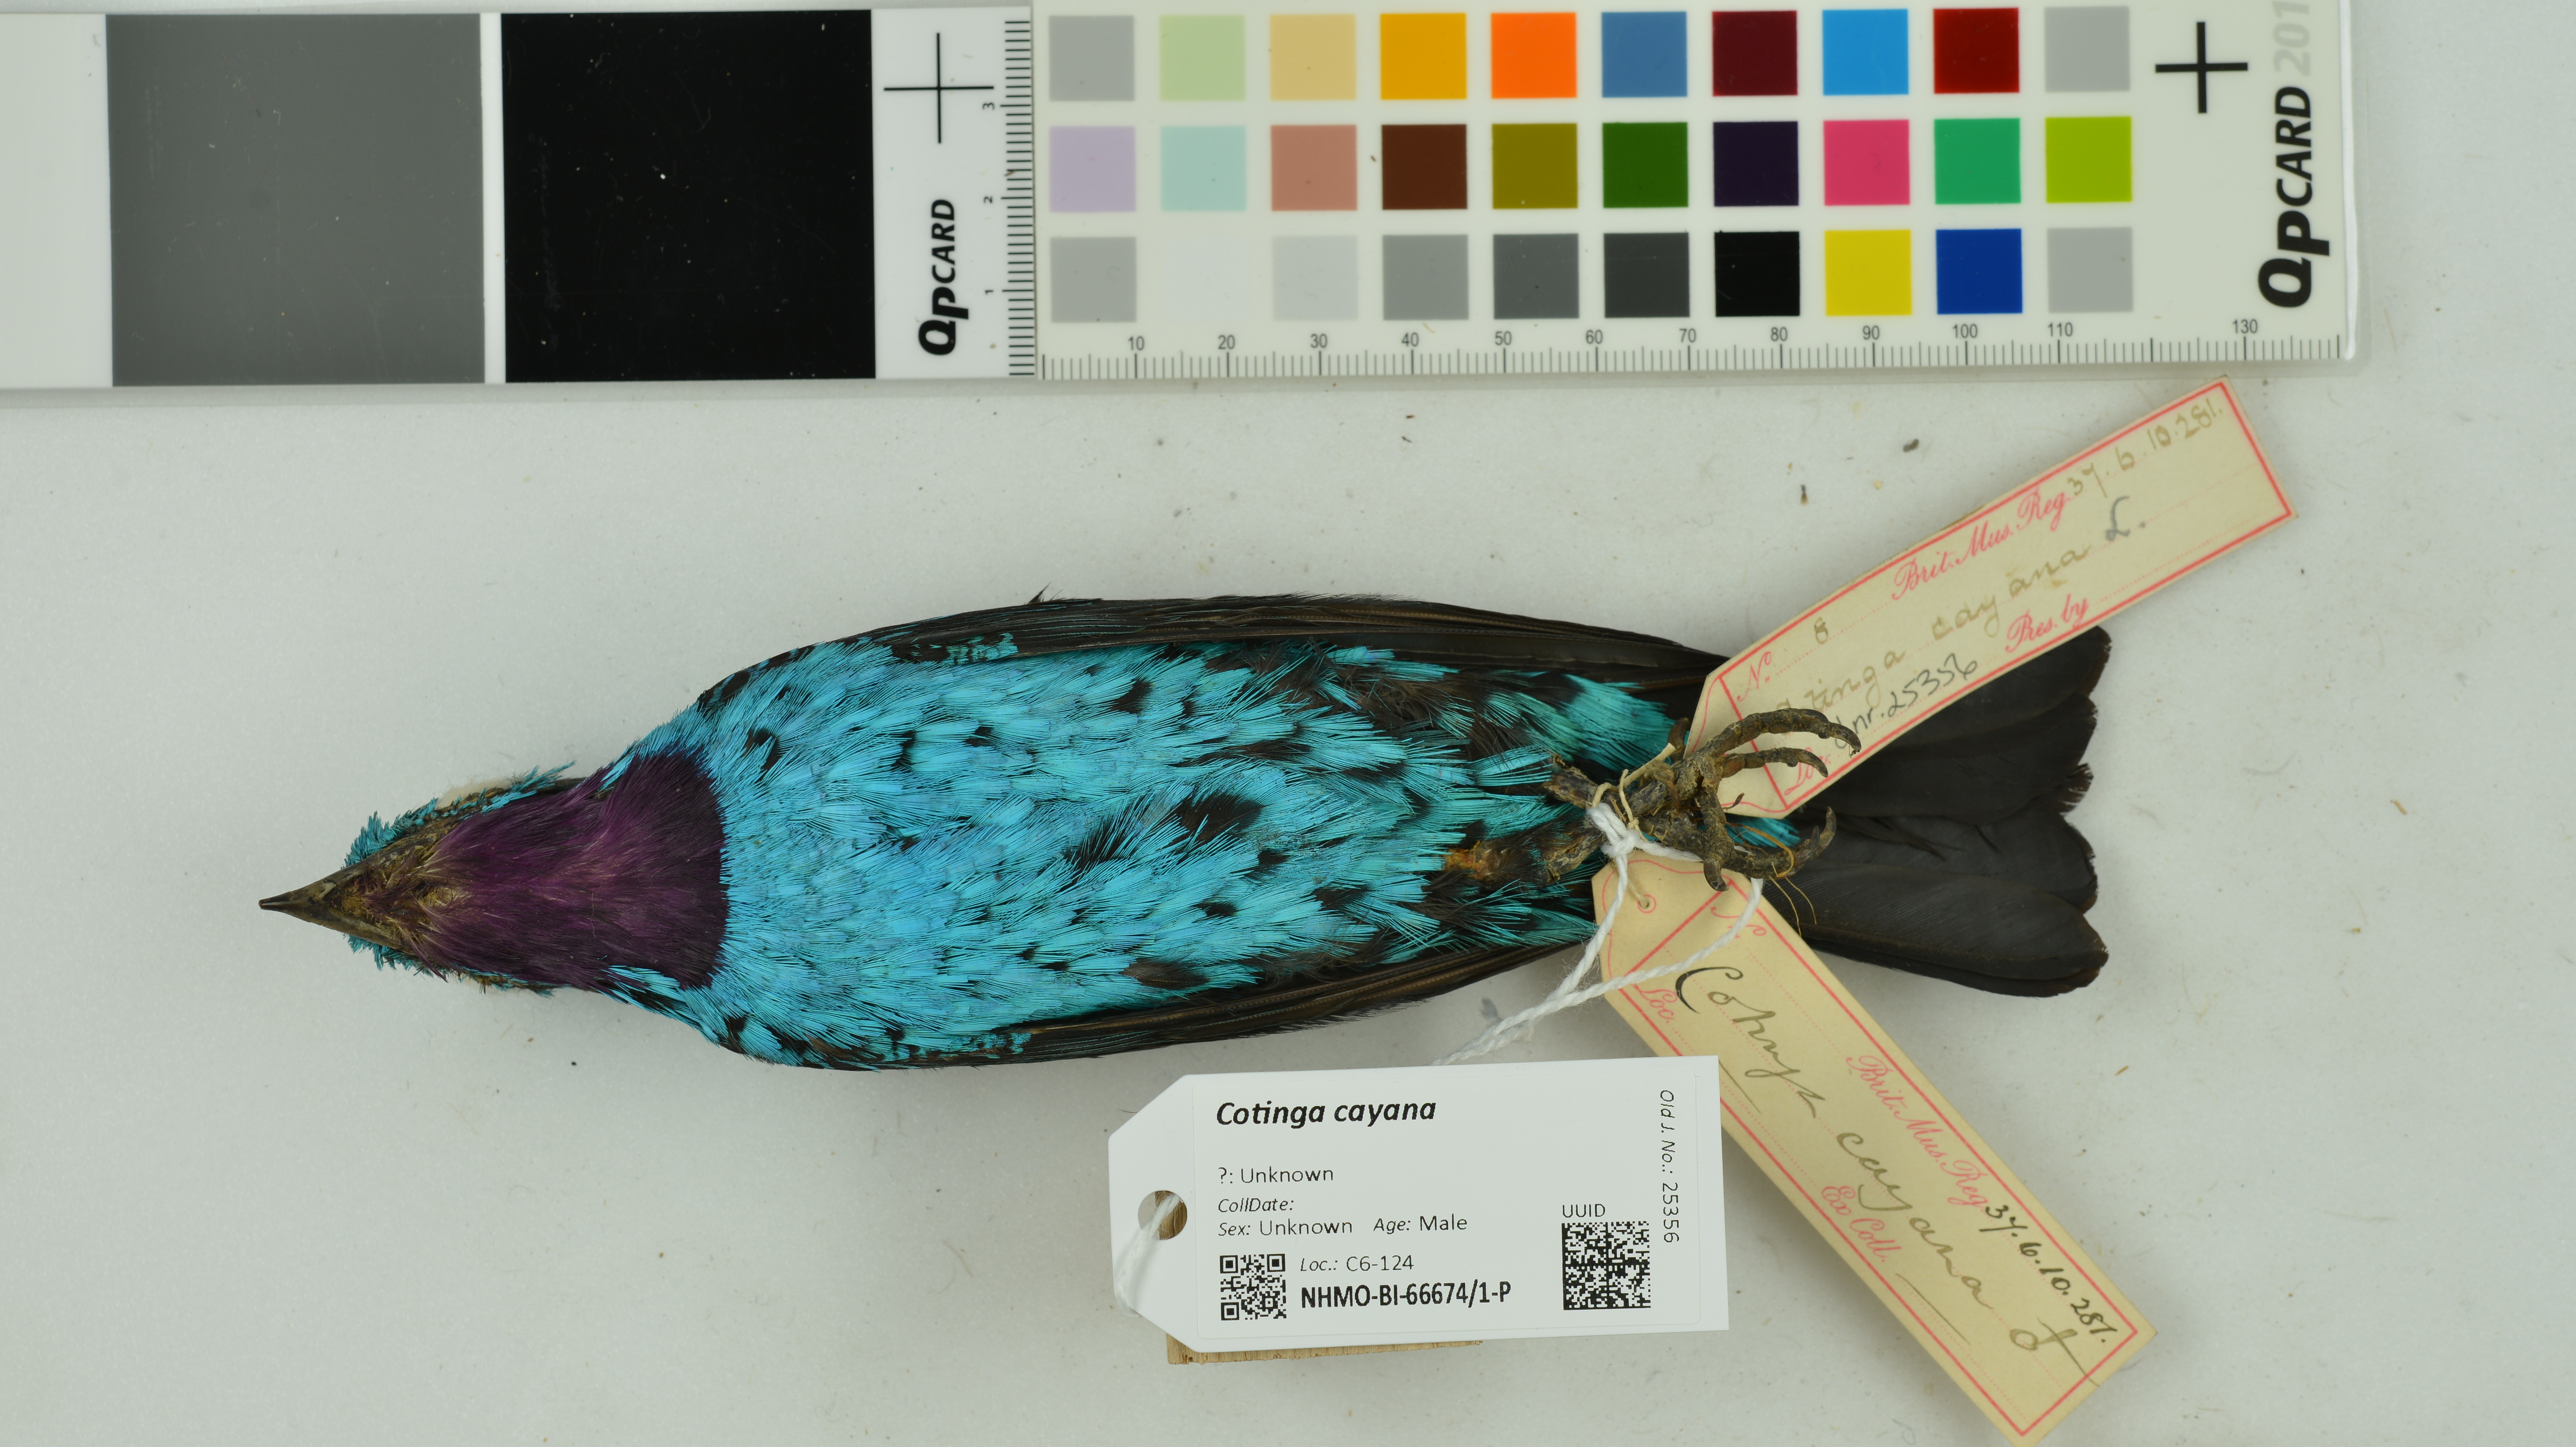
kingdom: Animalia
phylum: Chordata
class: Aves
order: Passeriformes
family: Cotingidae
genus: Cotinga
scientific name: Cotinga cayana
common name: Spangled cotinga
